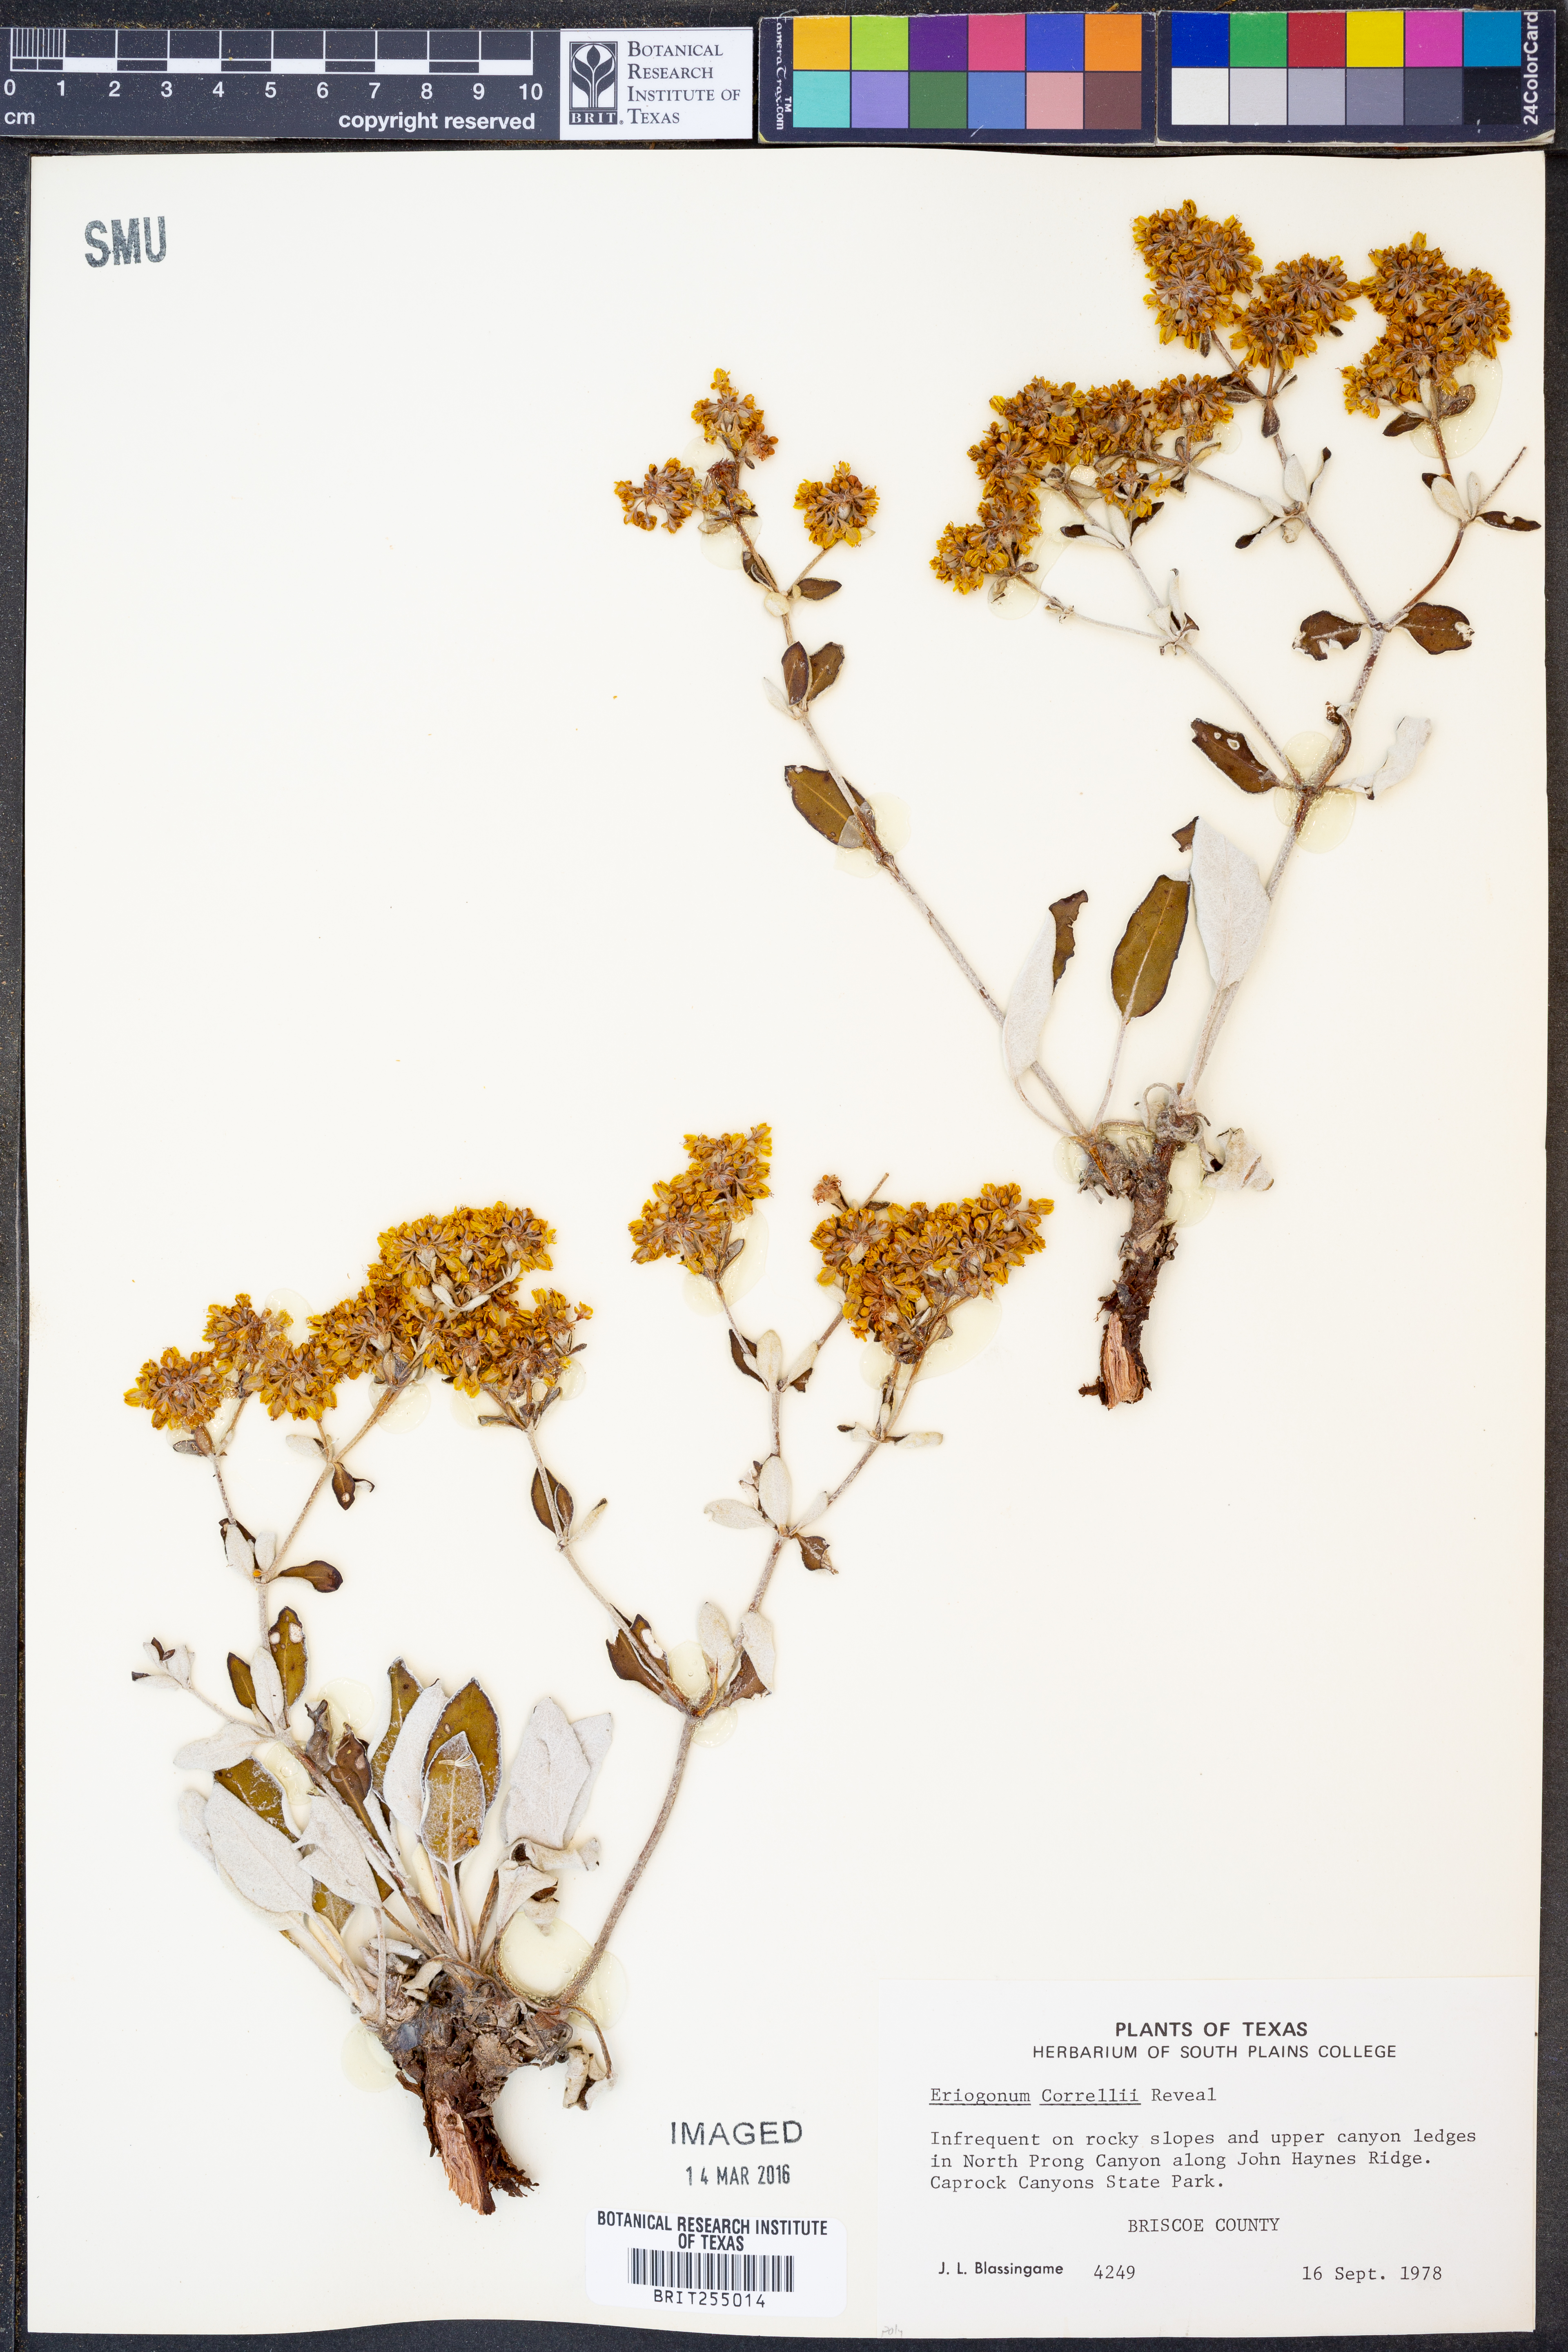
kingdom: Plantae
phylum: Tracheophyta
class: Magnoliopsida
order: Caryophyllales
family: Polygonaceae
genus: Eriogonum
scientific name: Eriogonum correllii
